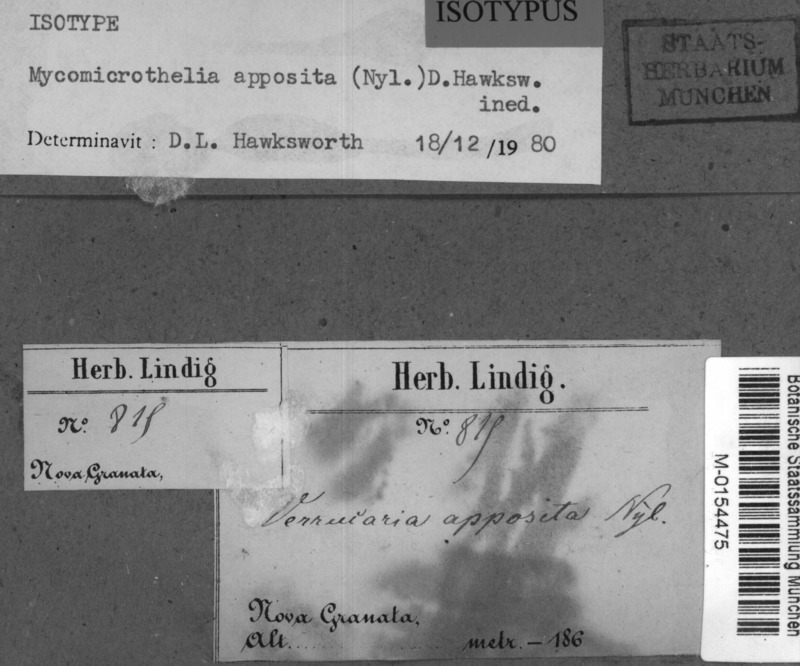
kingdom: Fungi
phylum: Ascomycota
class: Dothideomycetes
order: Trypetheliales
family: Trypetheliaceae
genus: Bogoriella
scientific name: Bogoriella apposita
